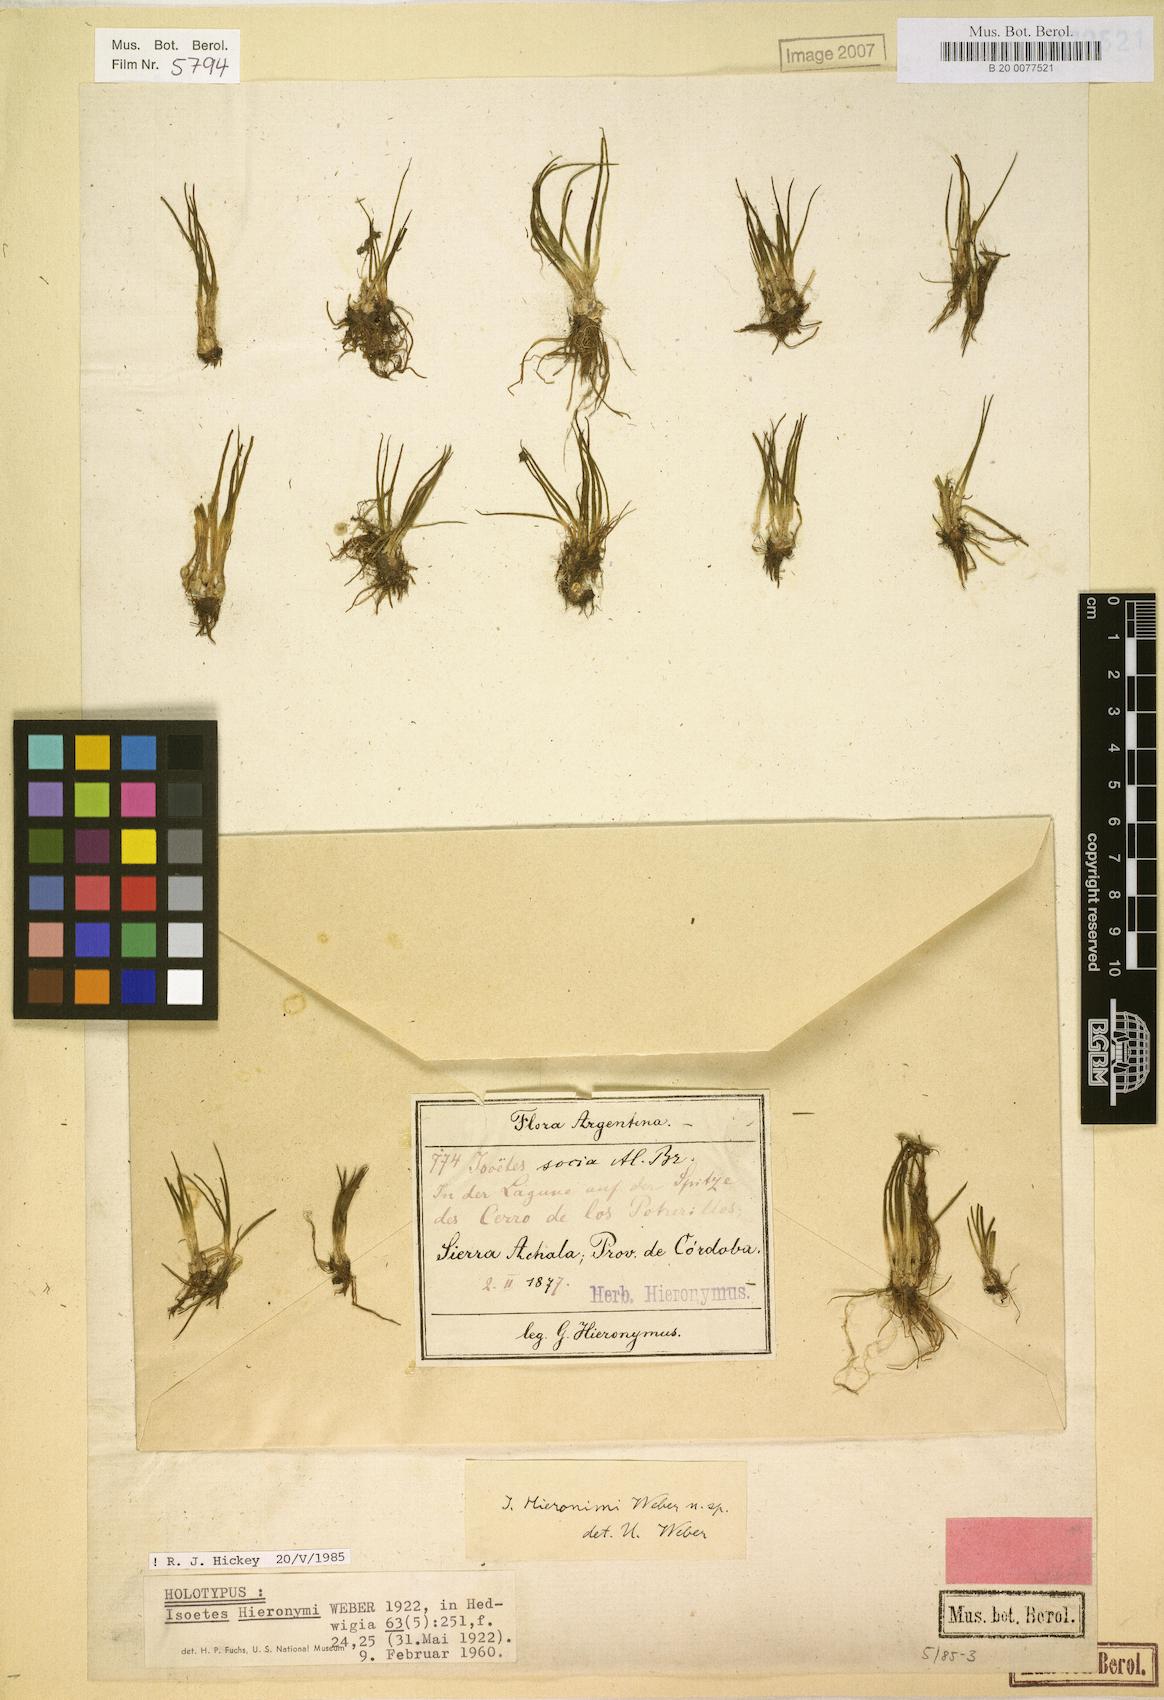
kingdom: Plantae
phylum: Tracheophyta
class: Lycopodiopsida
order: Isoetales
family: Isoetaceae
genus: Isoetes
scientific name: Isoetes hieronymi
